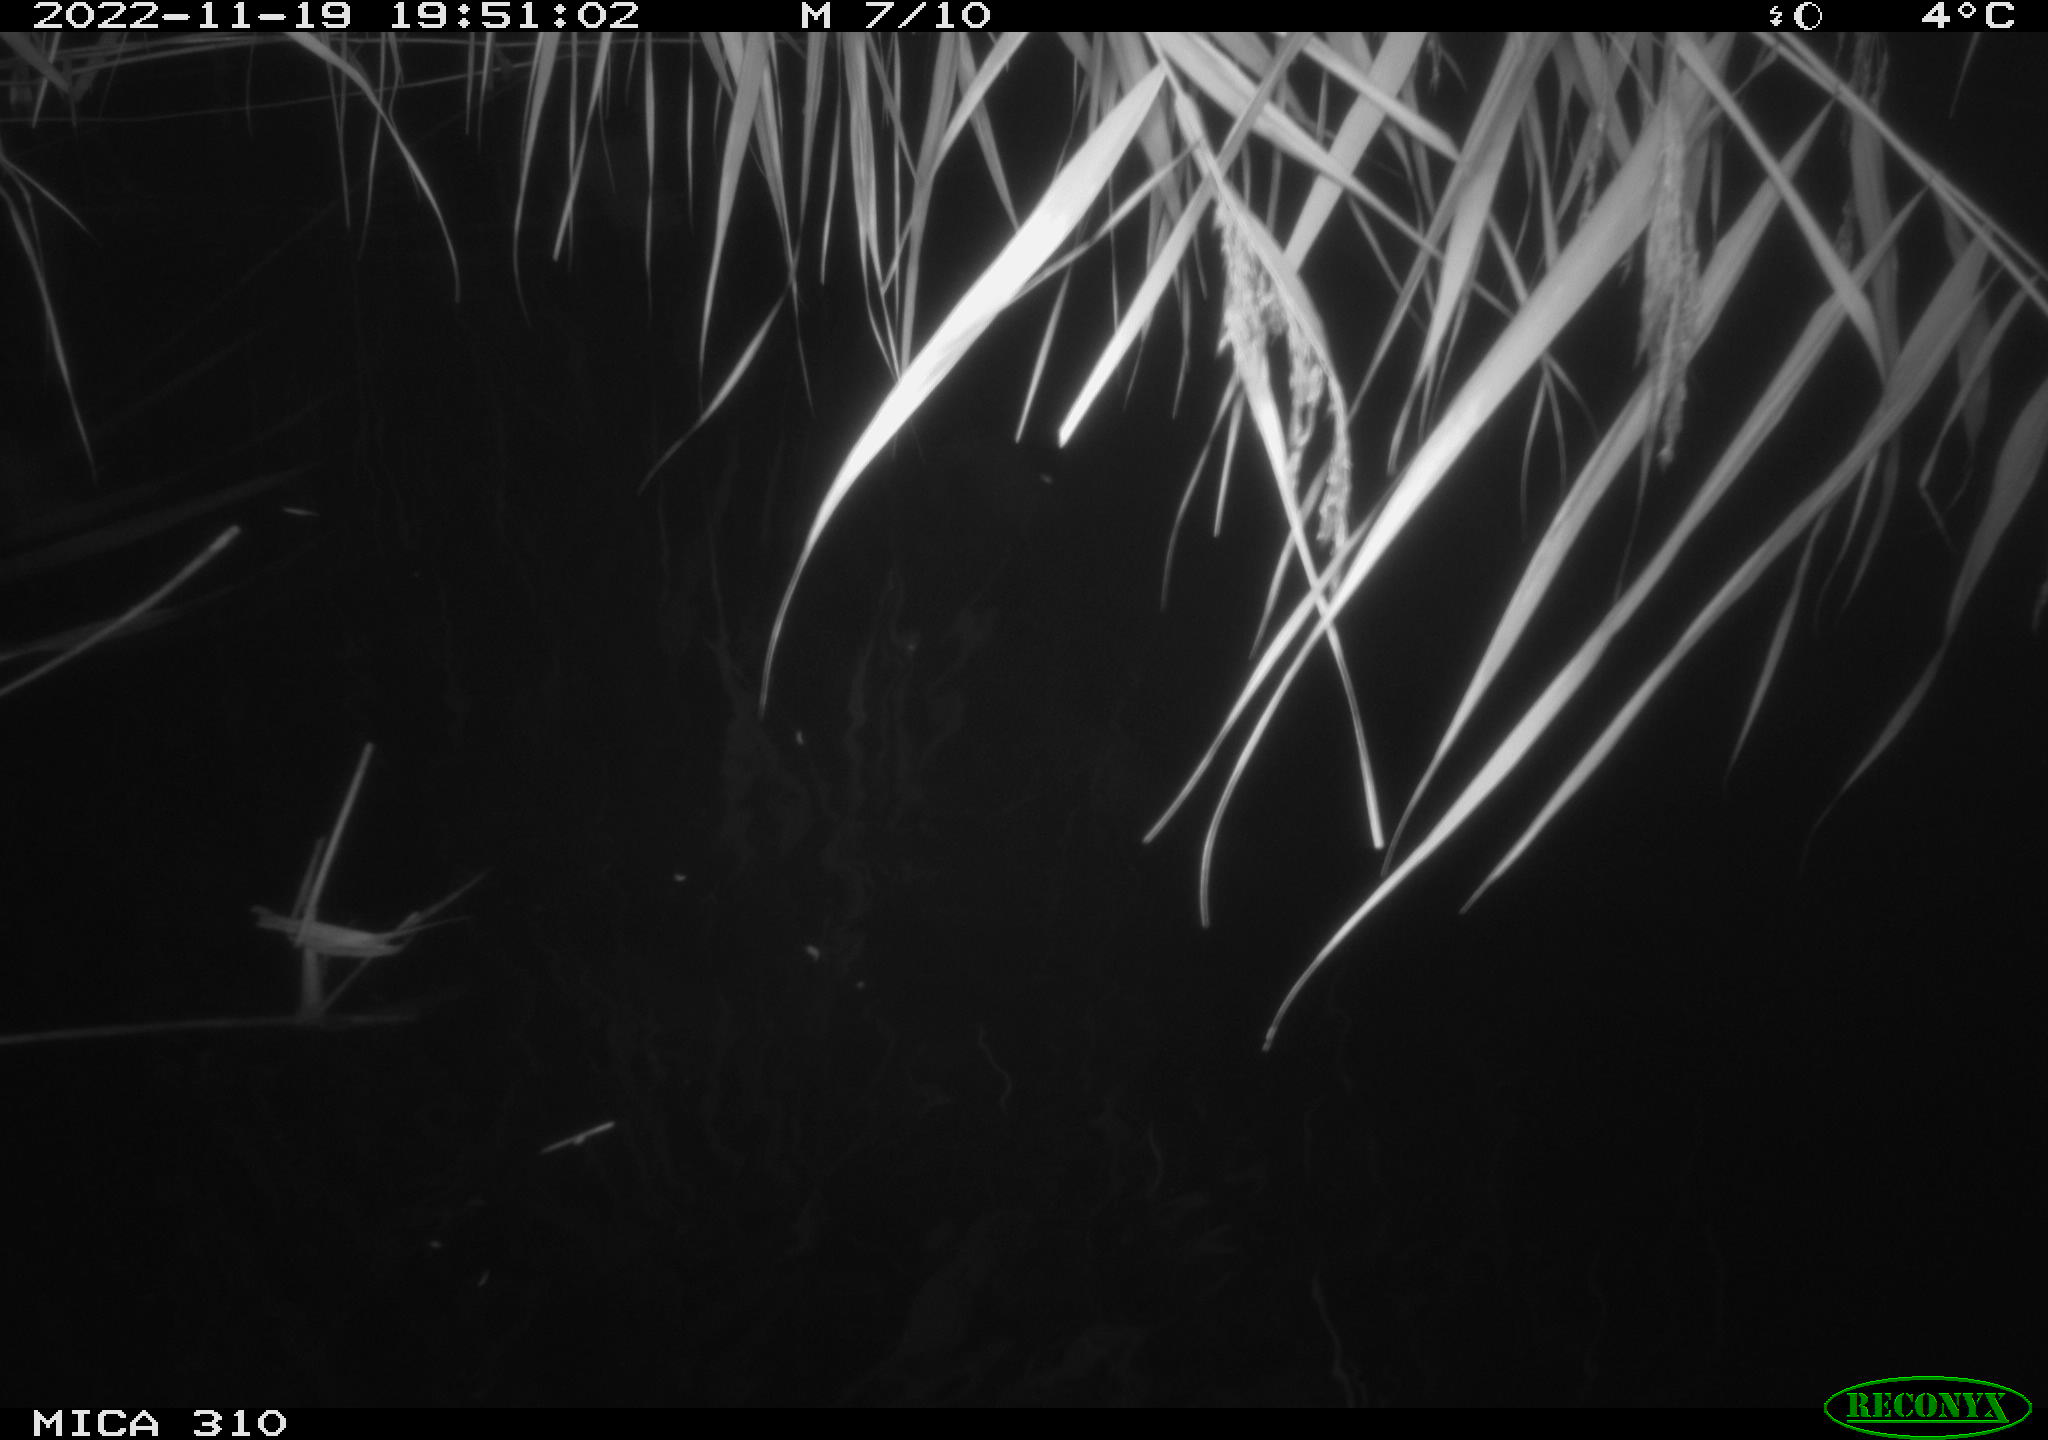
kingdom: Animalia
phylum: Chordata
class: Aves
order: Anseriformes
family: Anatidae
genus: Anas
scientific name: Anas
